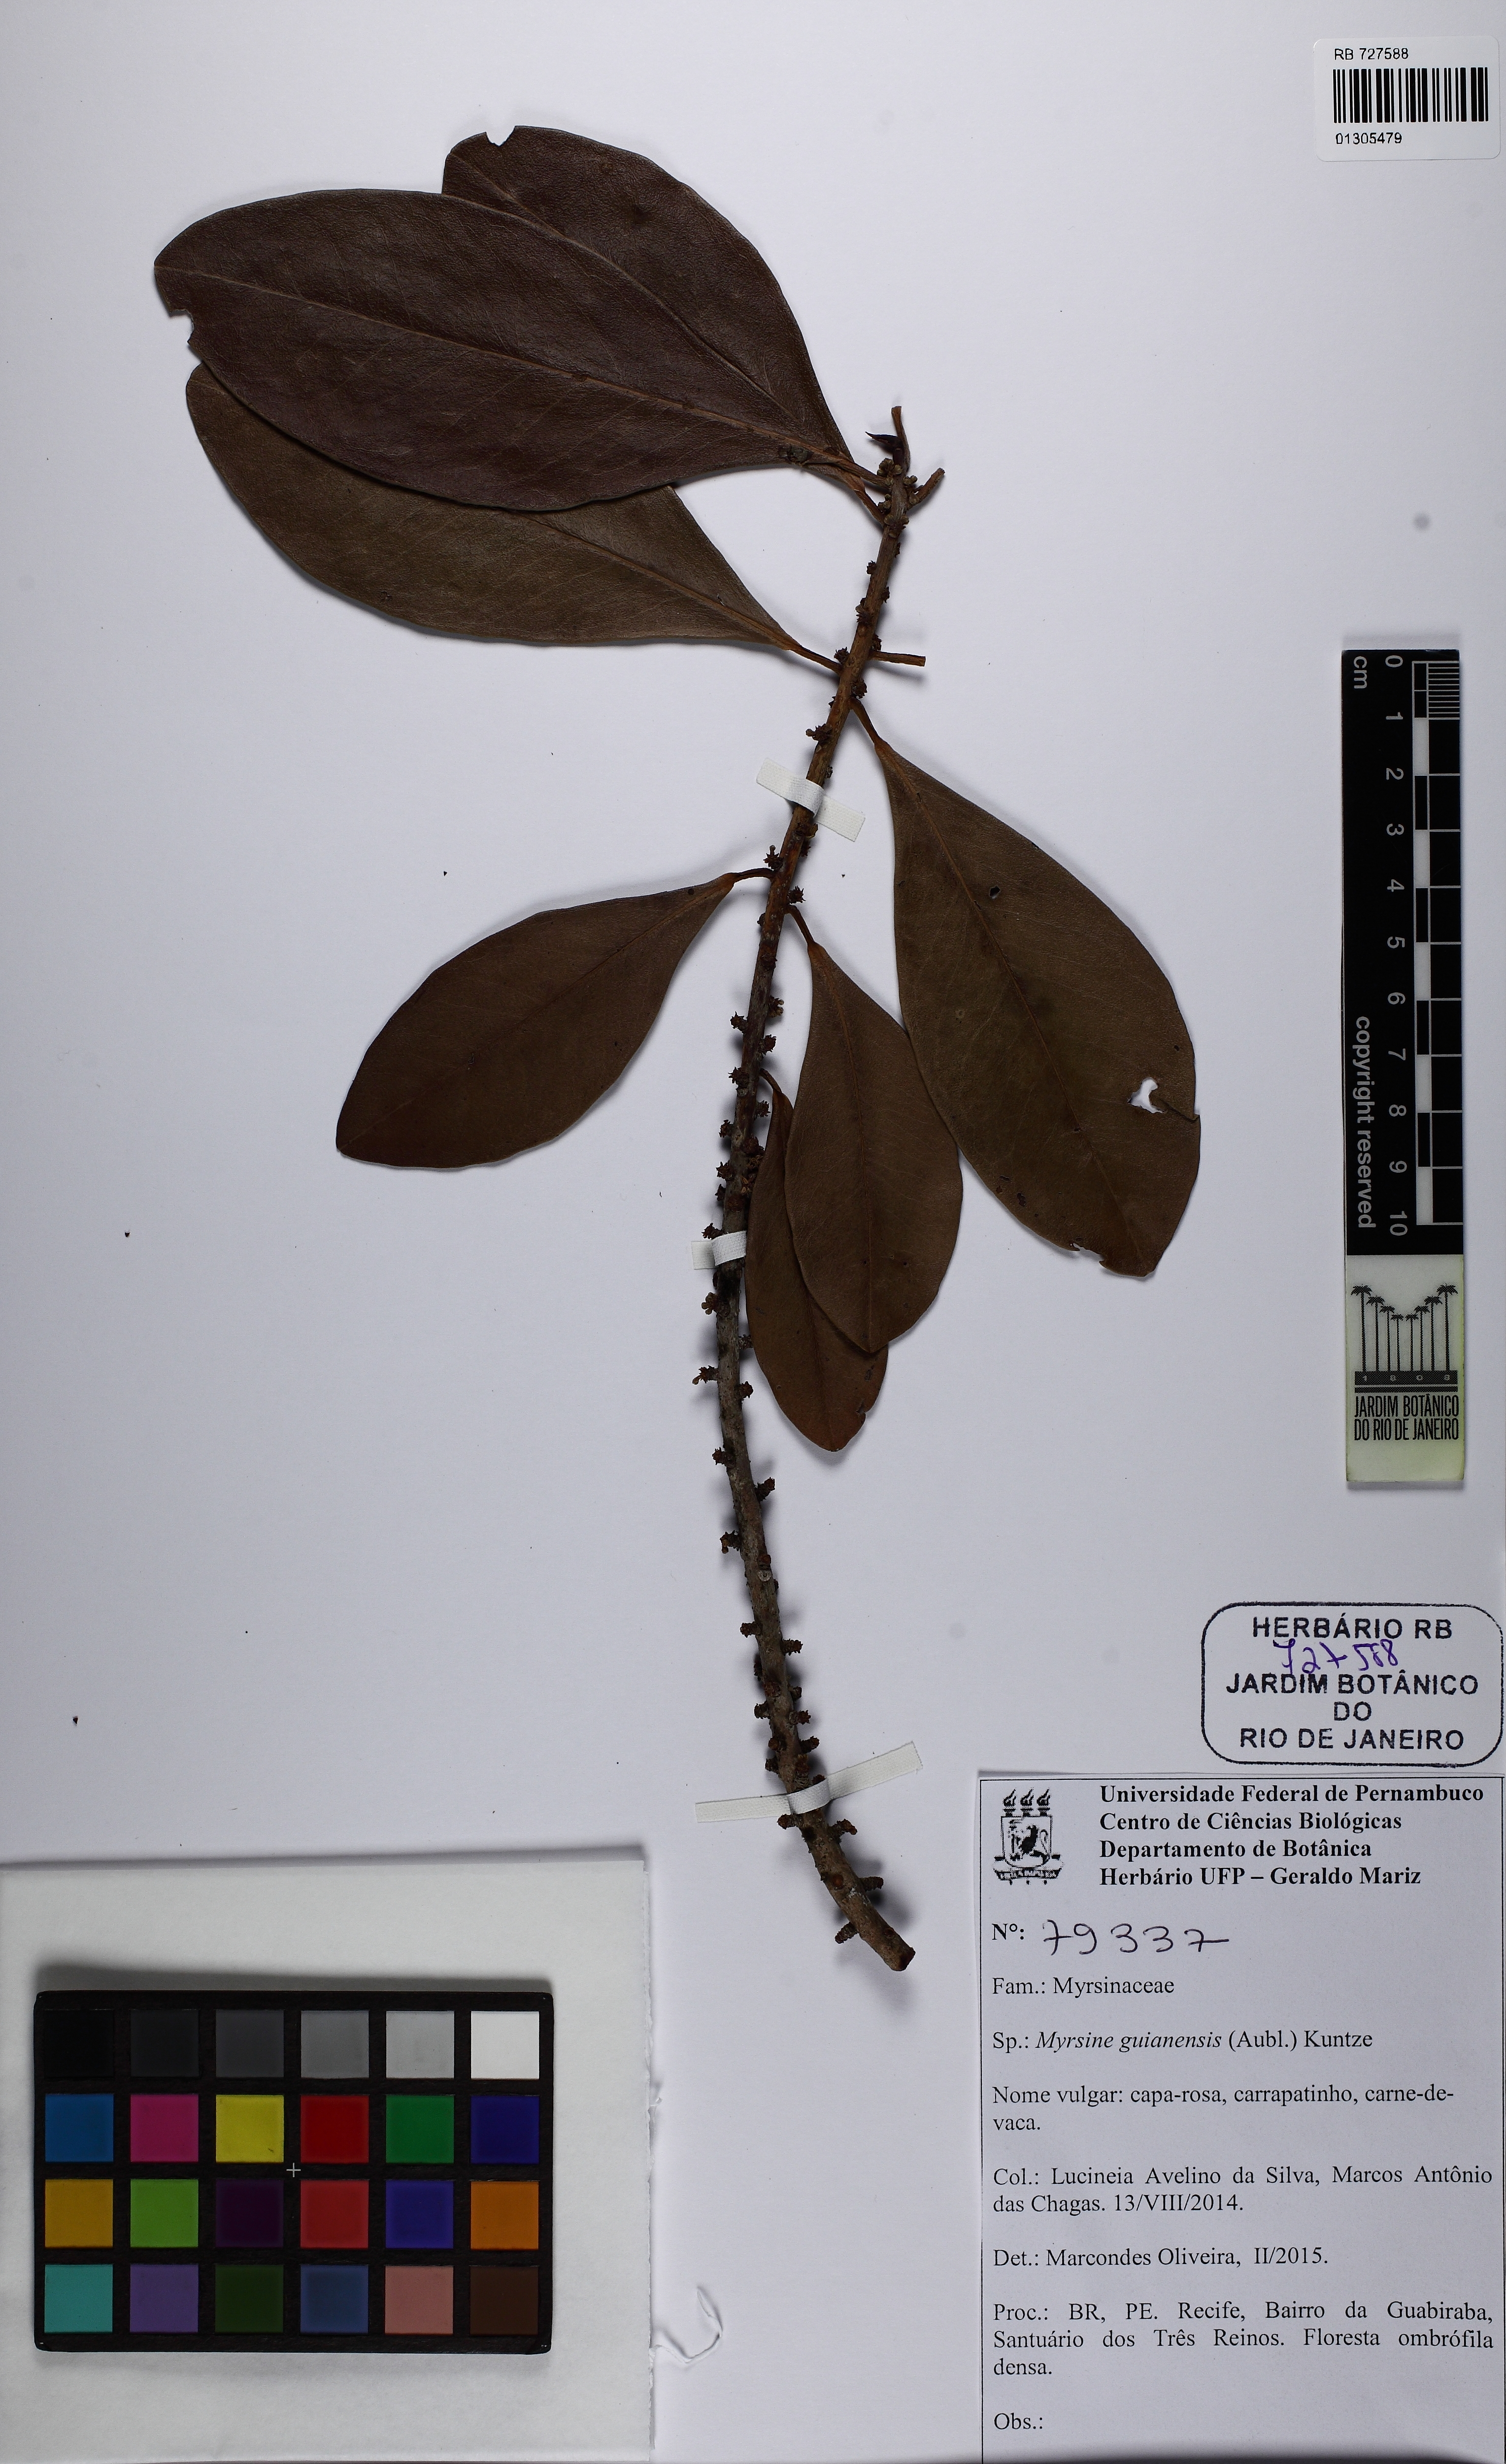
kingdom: Plantae
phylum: Tracheophyta
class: Magnoliopsida
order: Ericales
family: Primulaceae
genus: Myrsine
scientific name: Myrsine guianensis
